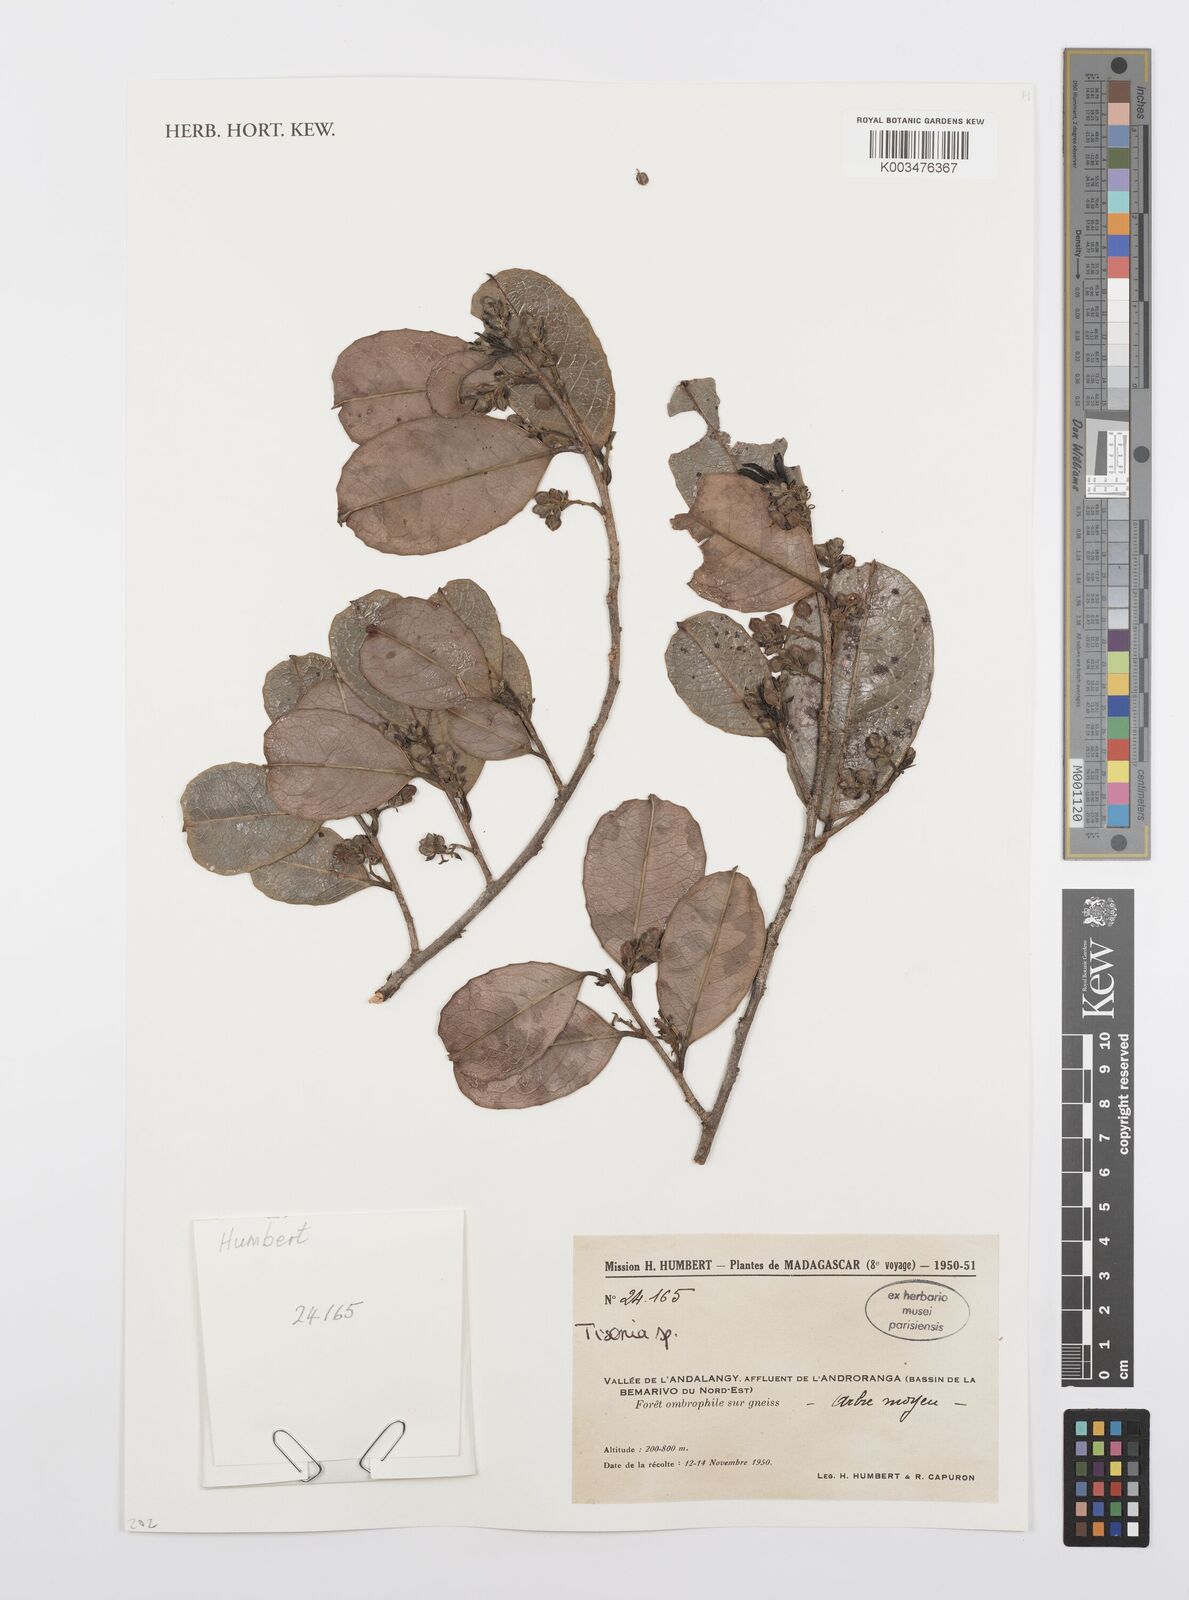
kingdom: Plantae
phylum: Tracheophyta
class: Magnoliopsida
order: Malpighiales
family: Salicaceae
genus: Tisonia
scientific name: Tisonia
